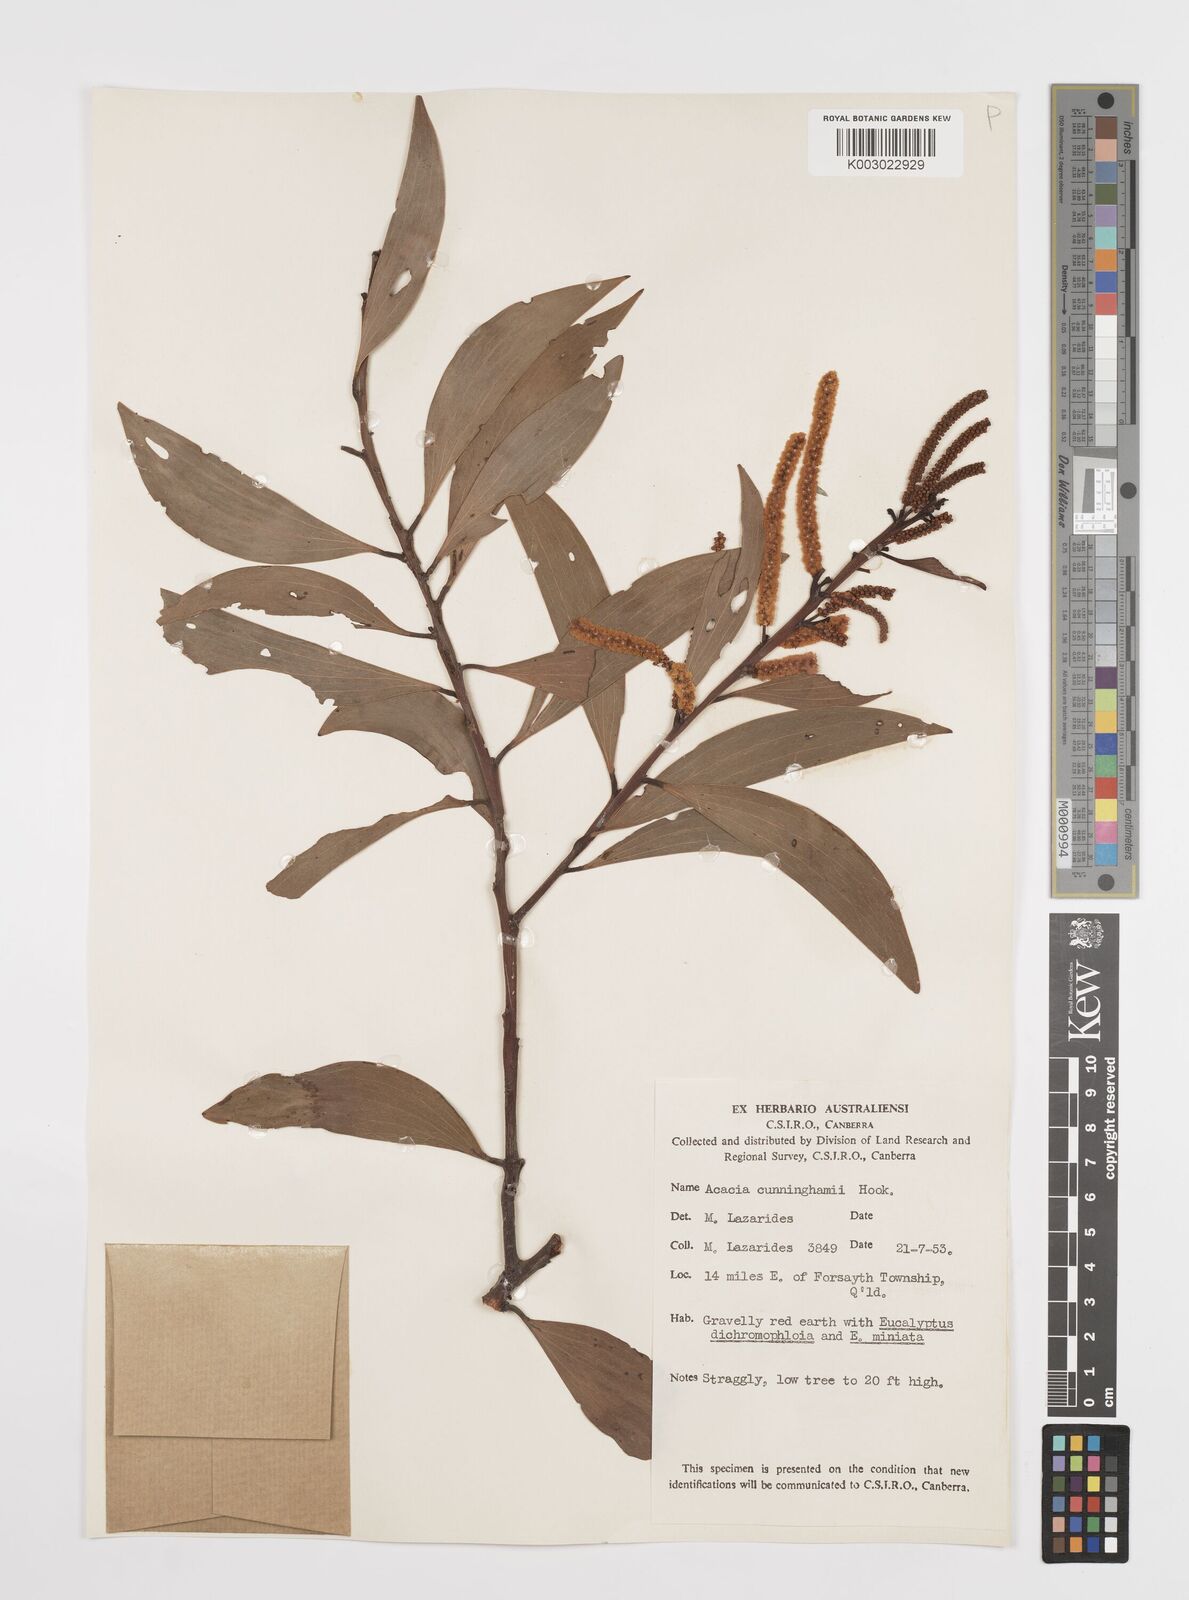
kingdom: Plantae
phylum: Tracheophyta
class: Magnoliopsida
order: Fabales
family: Fabaceae
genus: Acacia
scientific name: Acacia longispicata
